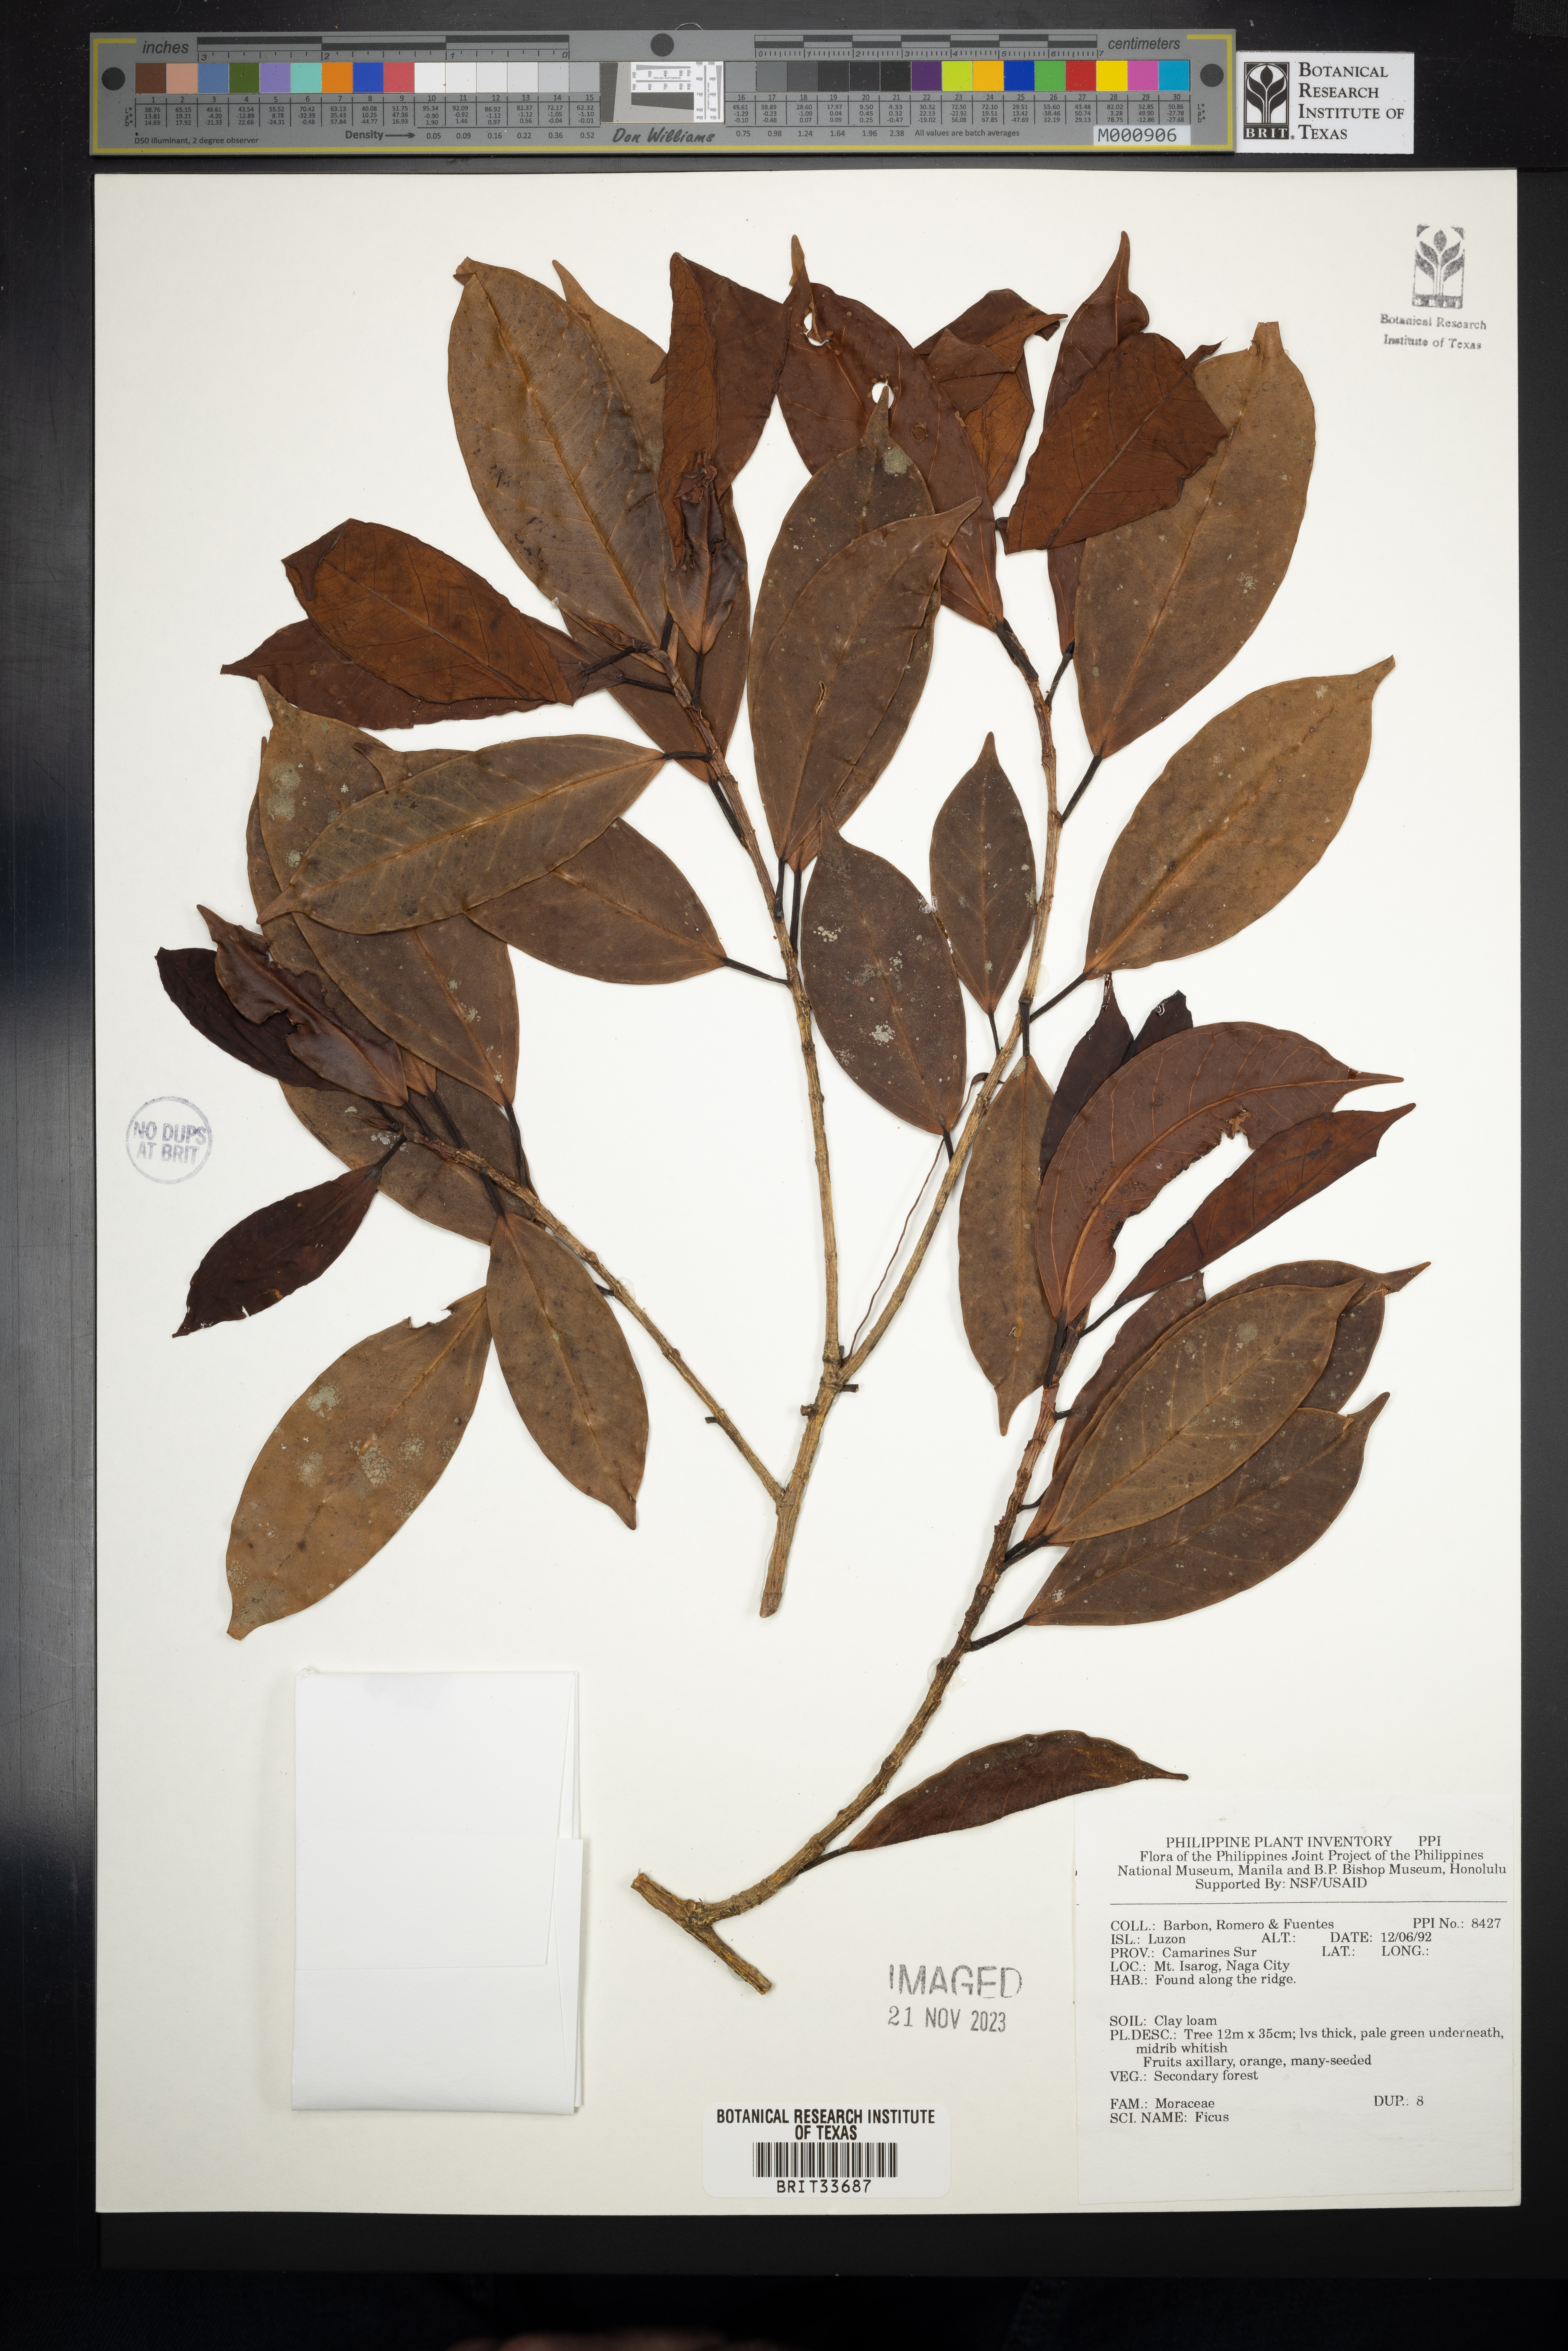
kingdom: Plantae
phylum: Tracheophyta
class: Magnoliopsida
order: Rosales
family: Moraceae
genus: Ficus
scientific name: Ficus
